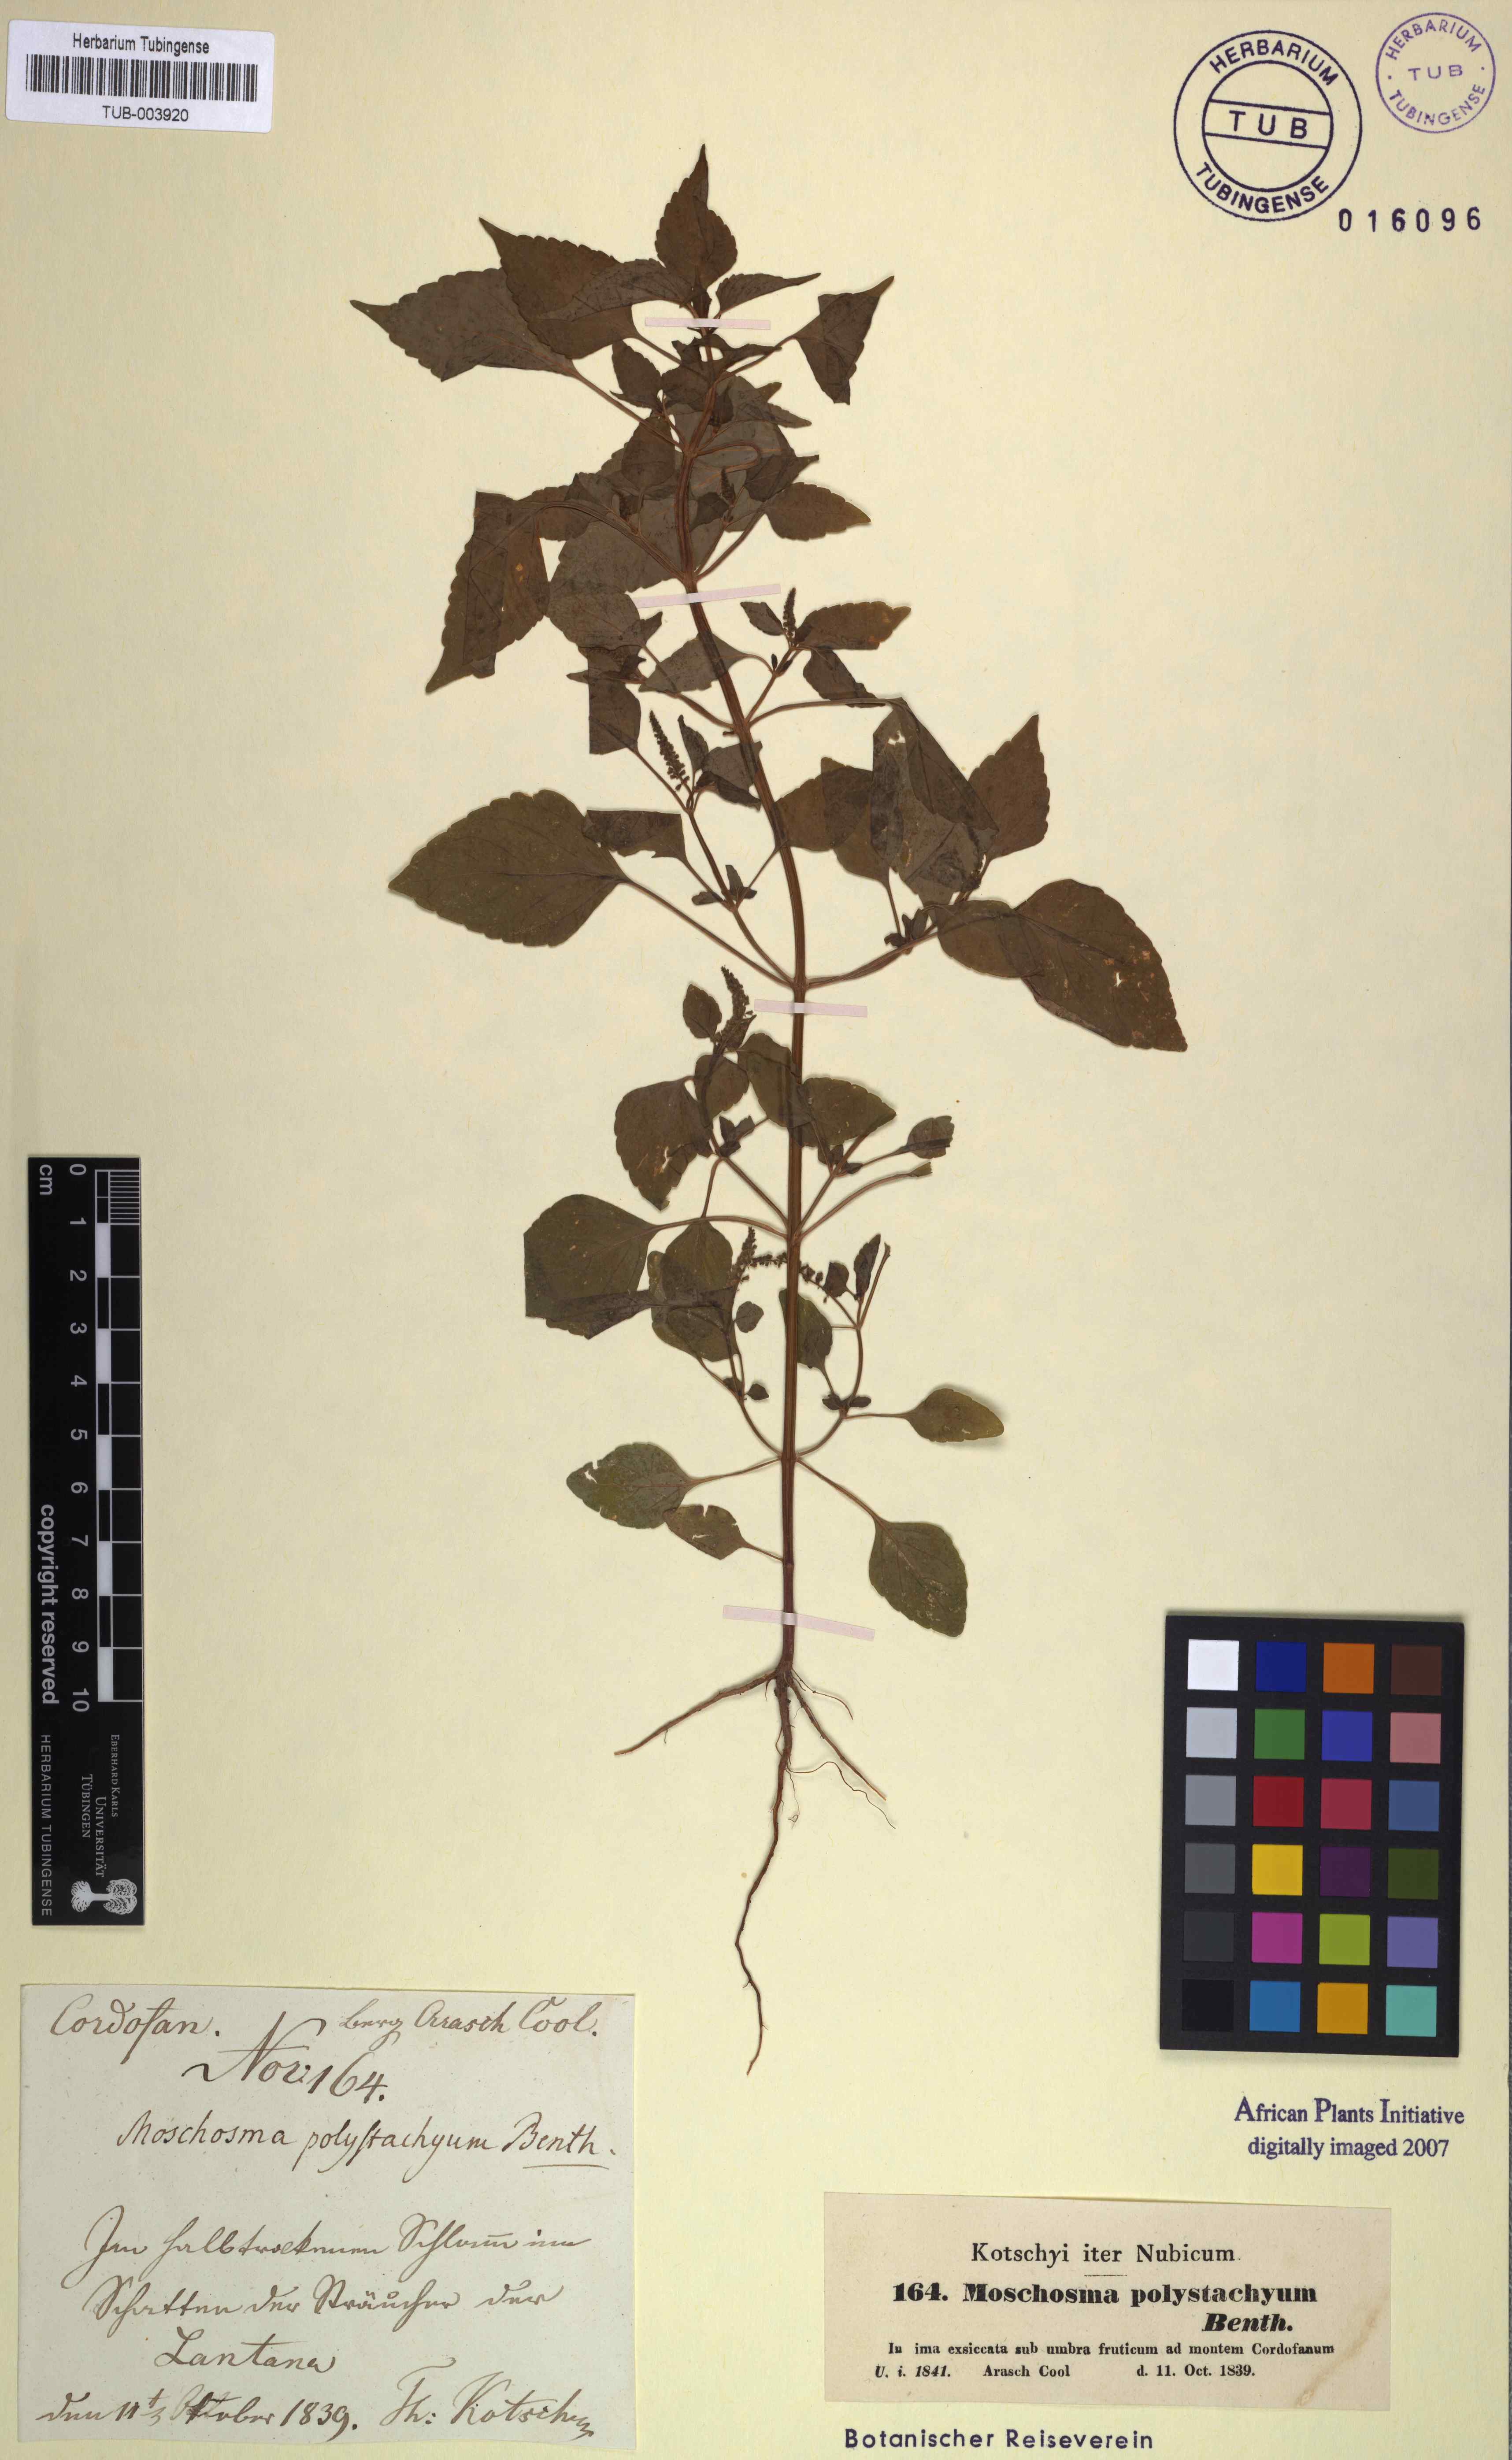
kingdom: Plantae
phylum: Tracheophyta
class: Magnoliopsida
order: Lamiales
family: Lamiaceae
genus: Basilicum
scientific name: Basilicum polystachyon
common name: Musk-basil
